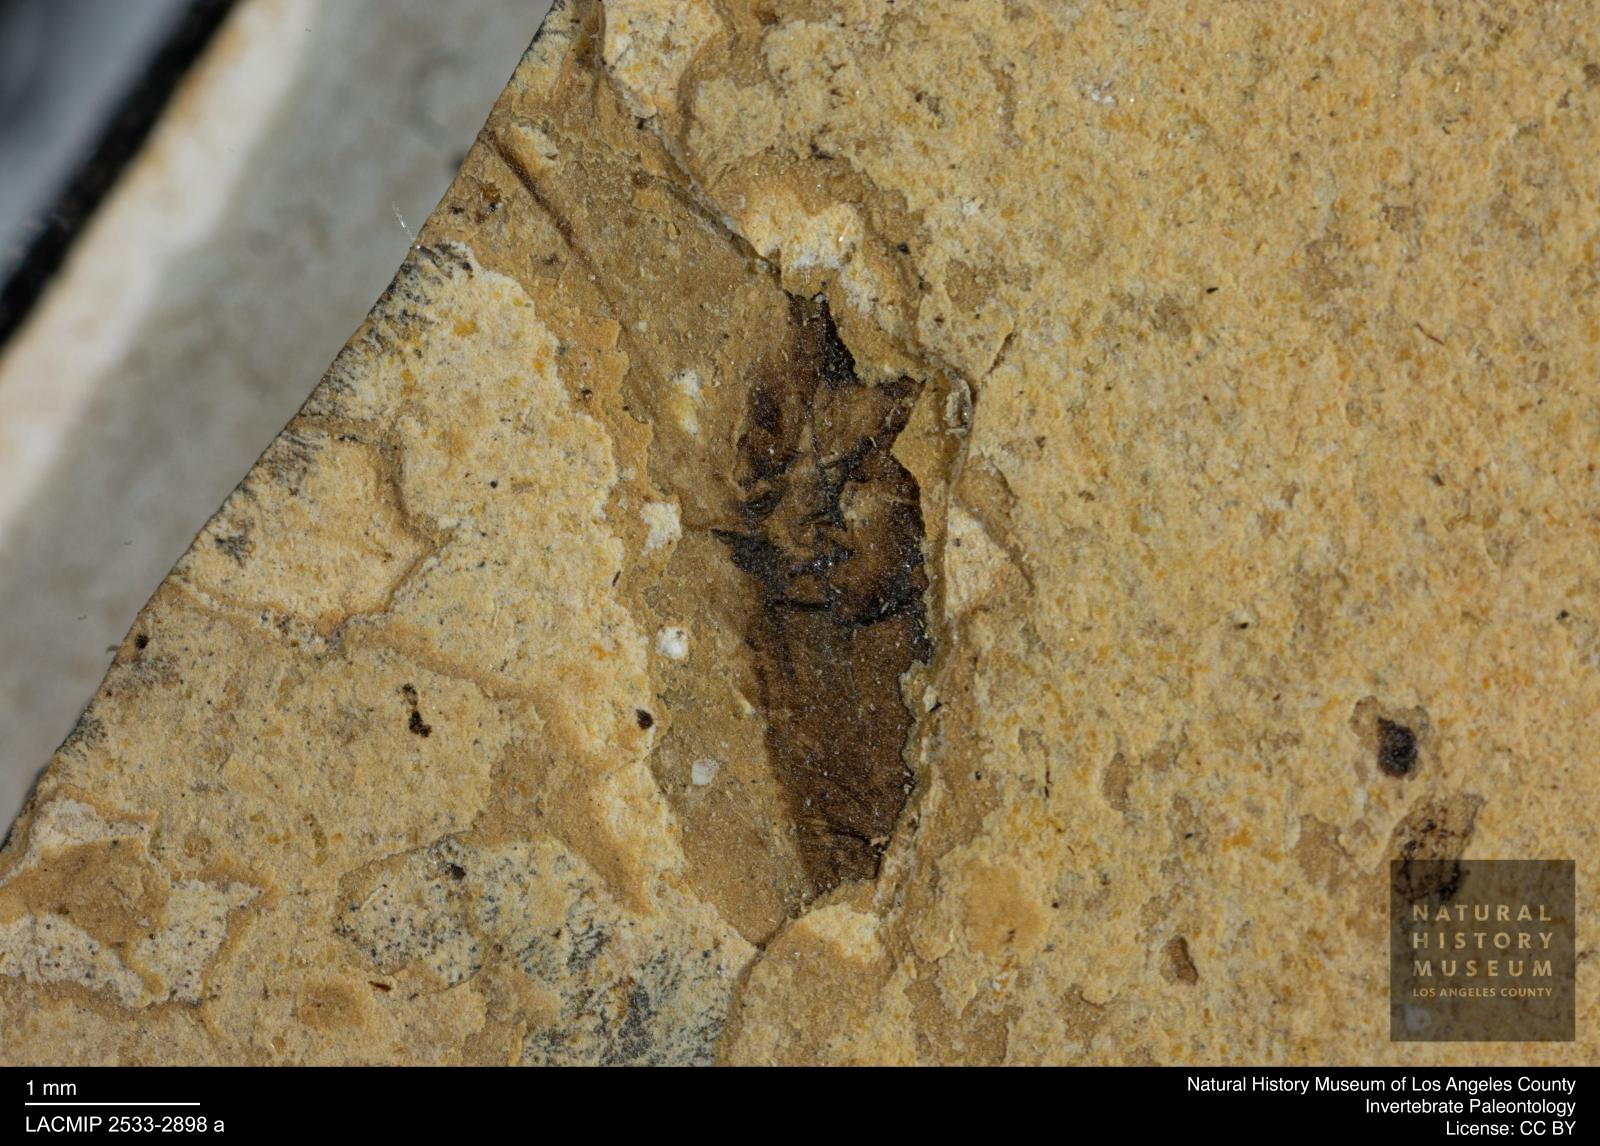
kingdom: Animalia
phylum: Arthropoda
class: Insecta
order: Hemiptera
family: Notonectidae
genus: Notonecta
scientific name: Notonecta
